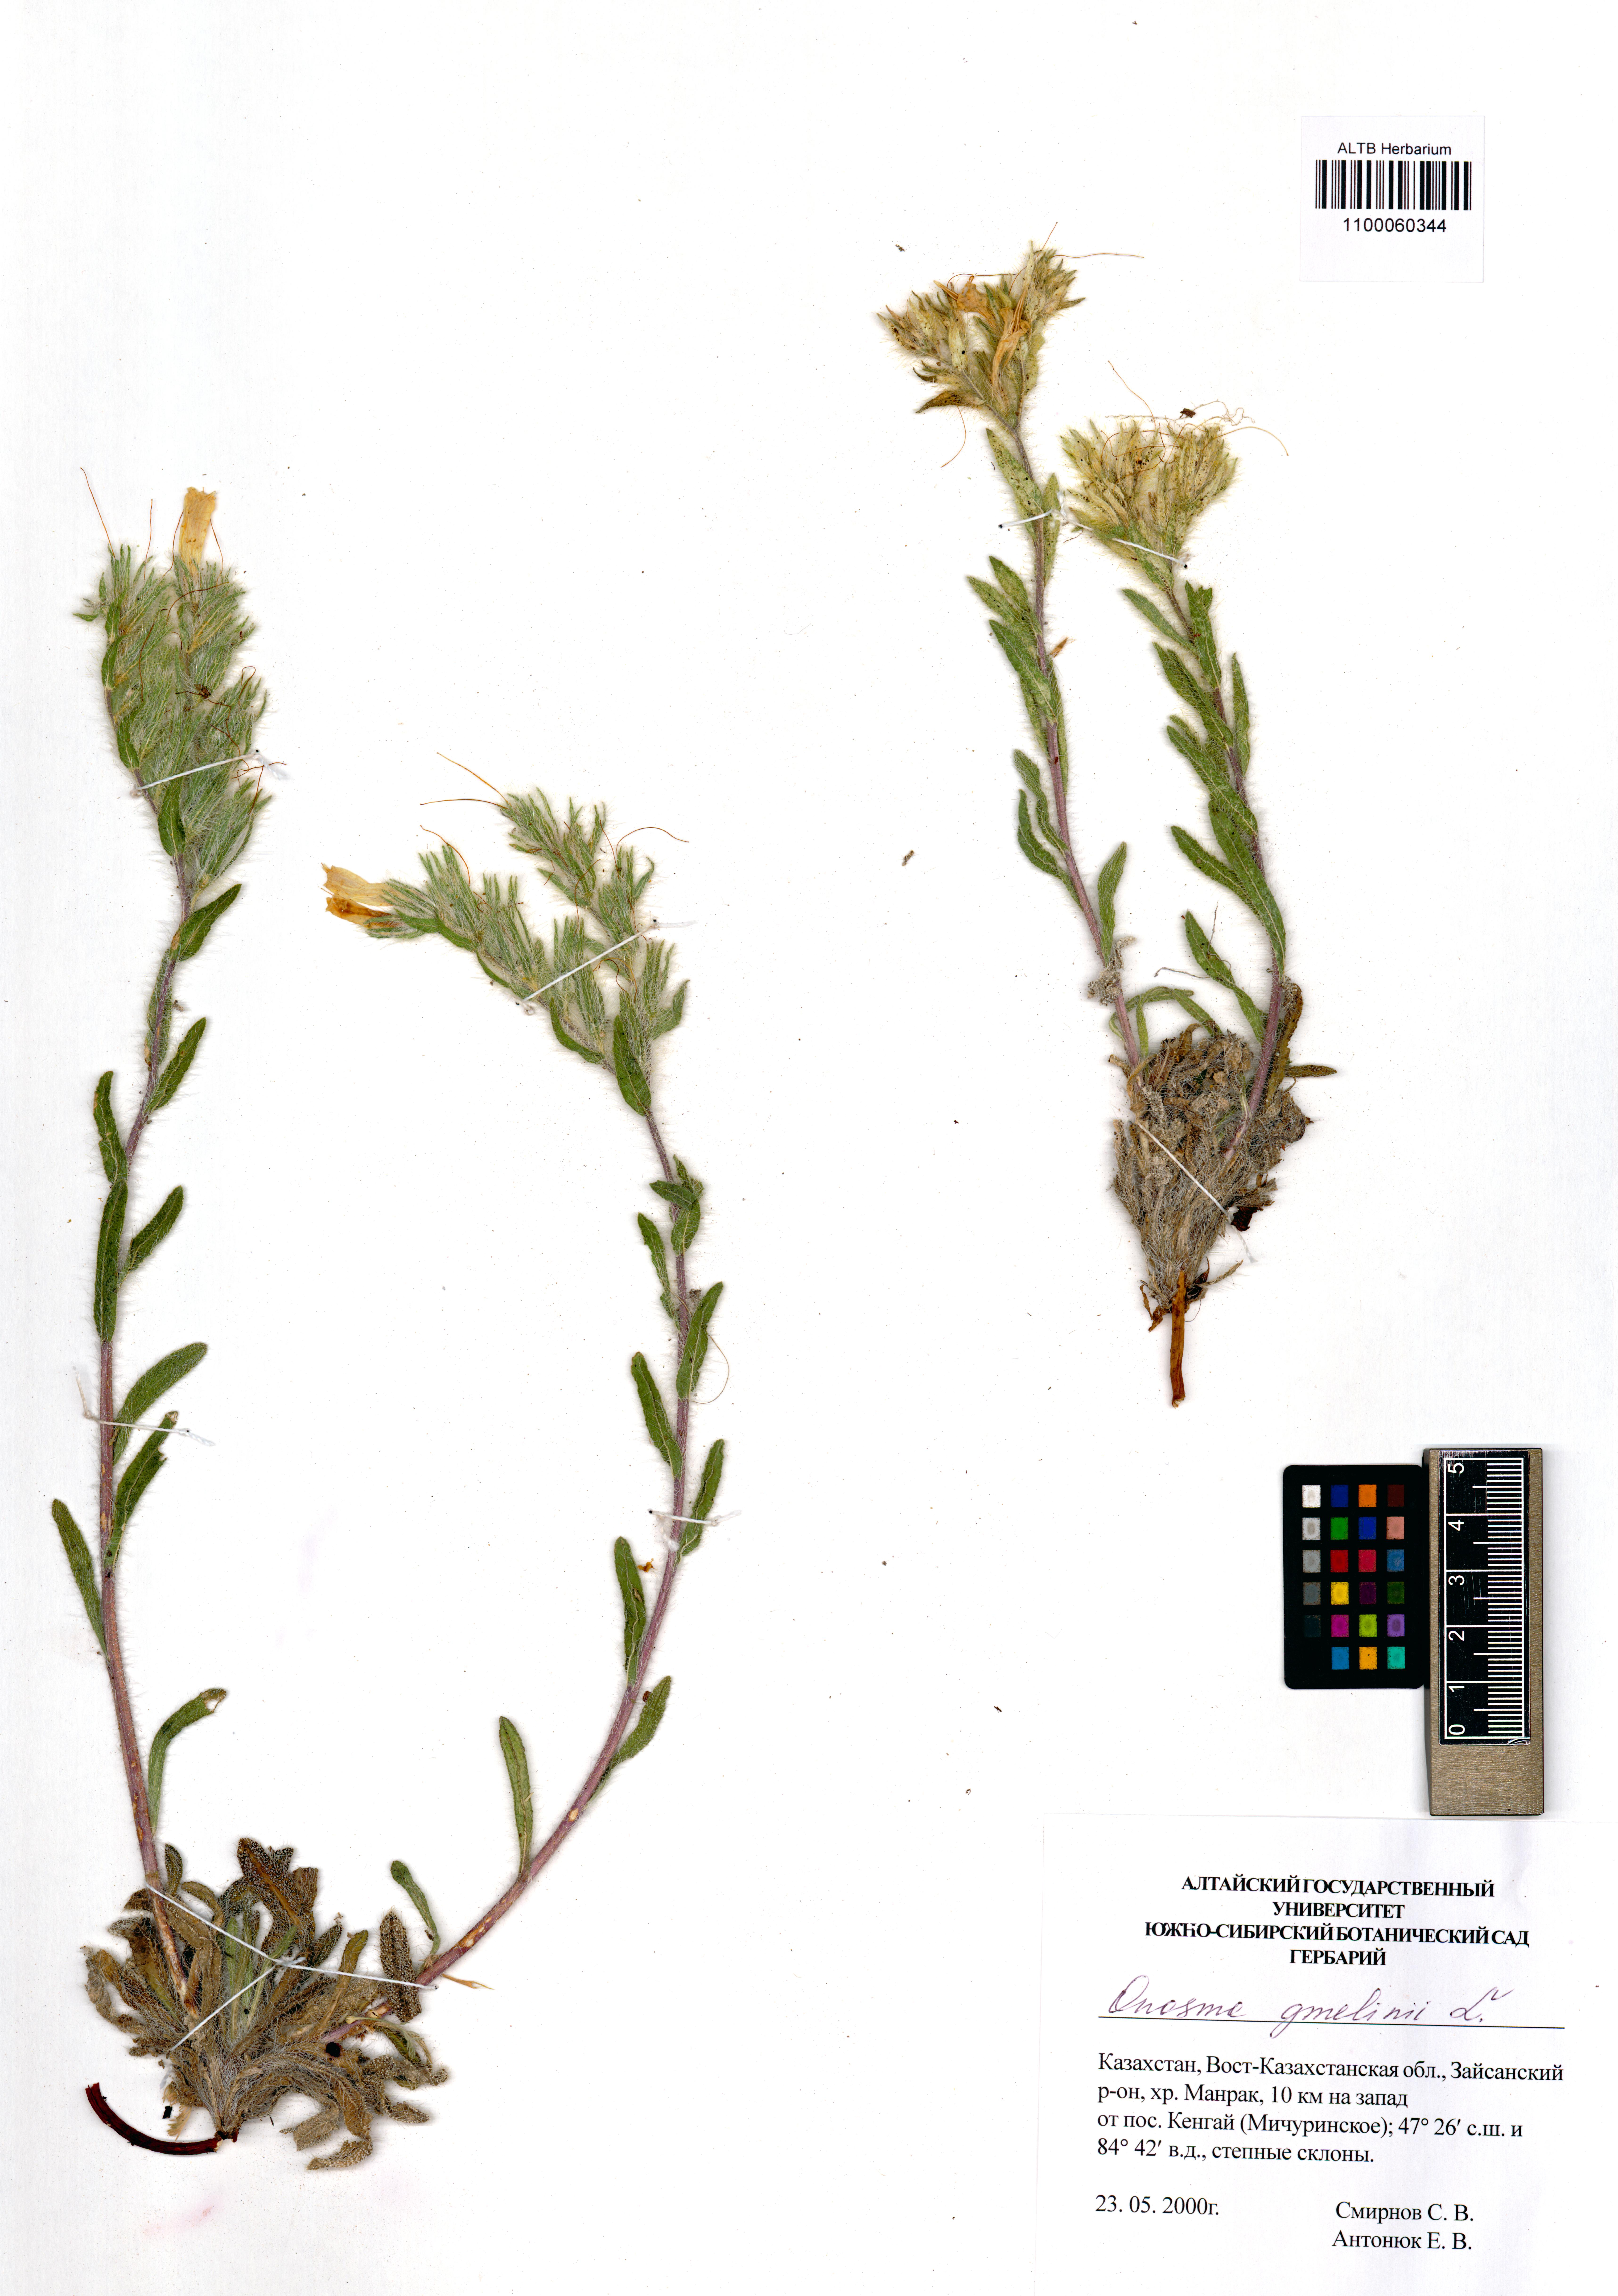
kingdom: Plantae
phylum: Tracheophyta
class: Magnoliopsida
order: Boraginales
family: Boraginaceae
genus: Onosma
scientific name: Onosma gmelinii
